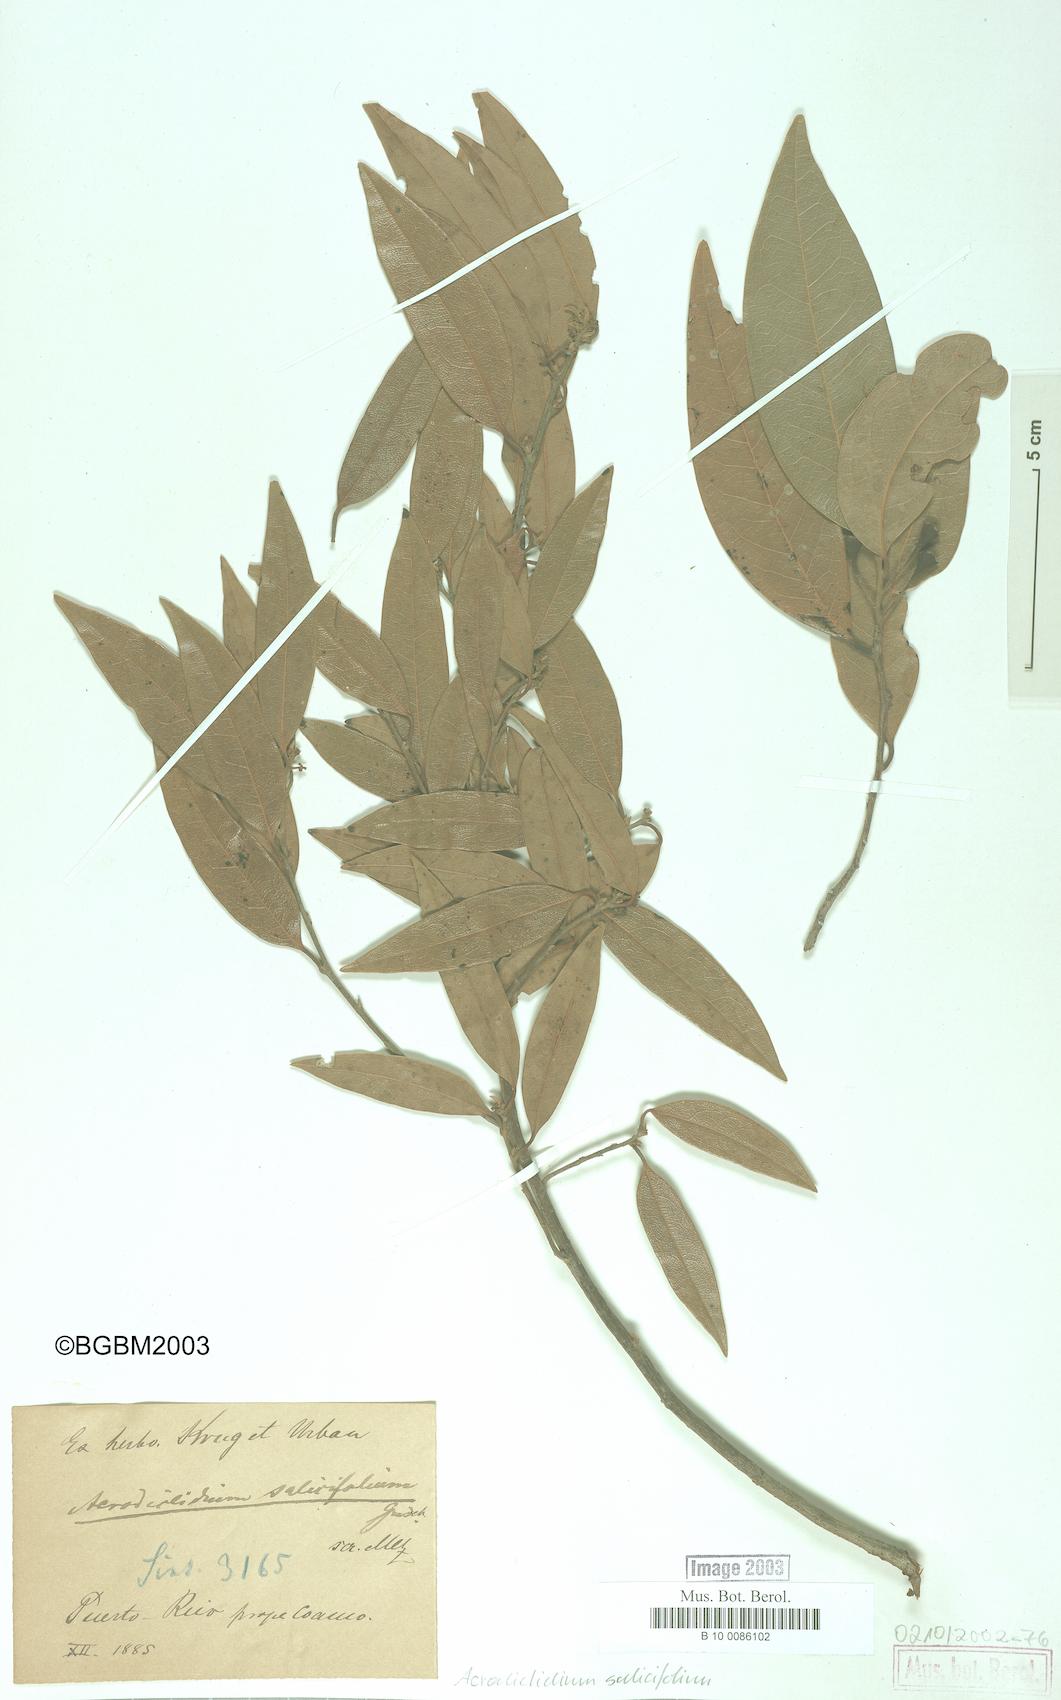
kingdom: Plantae
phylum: Tracheophyta
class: Magnoliopsida
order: Laurales
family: Lauraceae
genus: Licaria
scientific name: Licaria parvifolia
